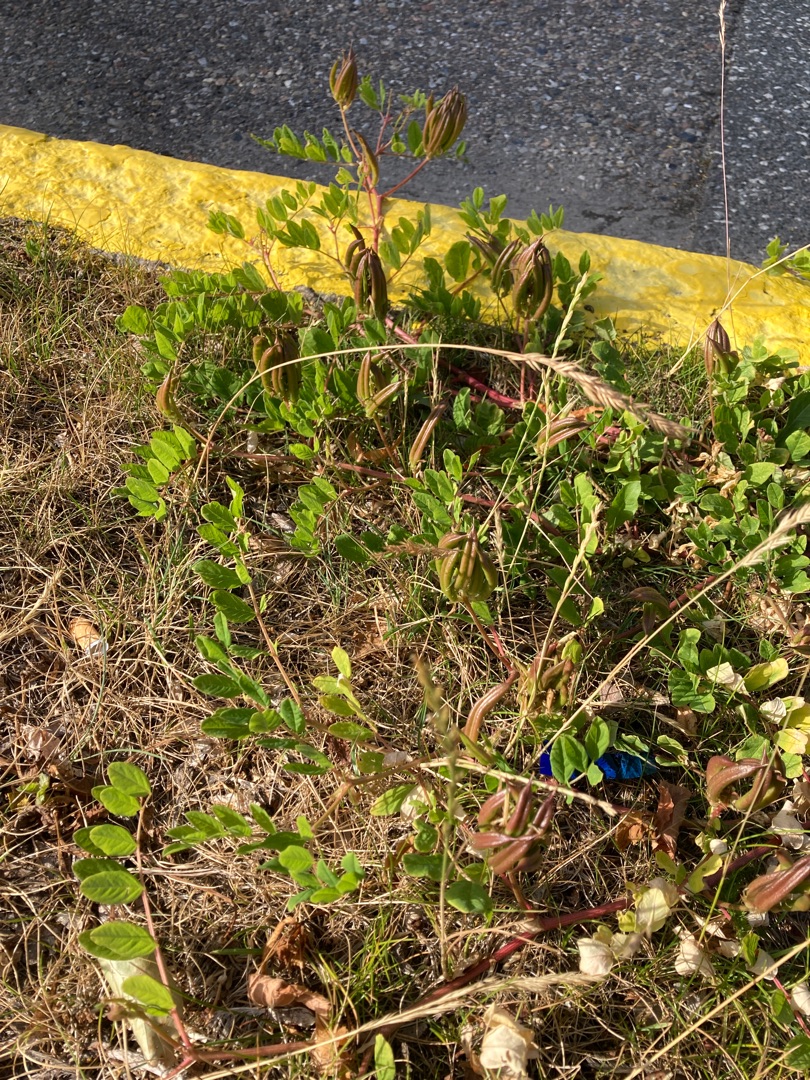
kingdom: Plantae
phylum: Tracheophyta
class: Magnoliopsida
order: Fabales
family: Fabaceae
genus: Astragalus
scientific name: Astragalus glycyphyllos
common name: Sød astragel
